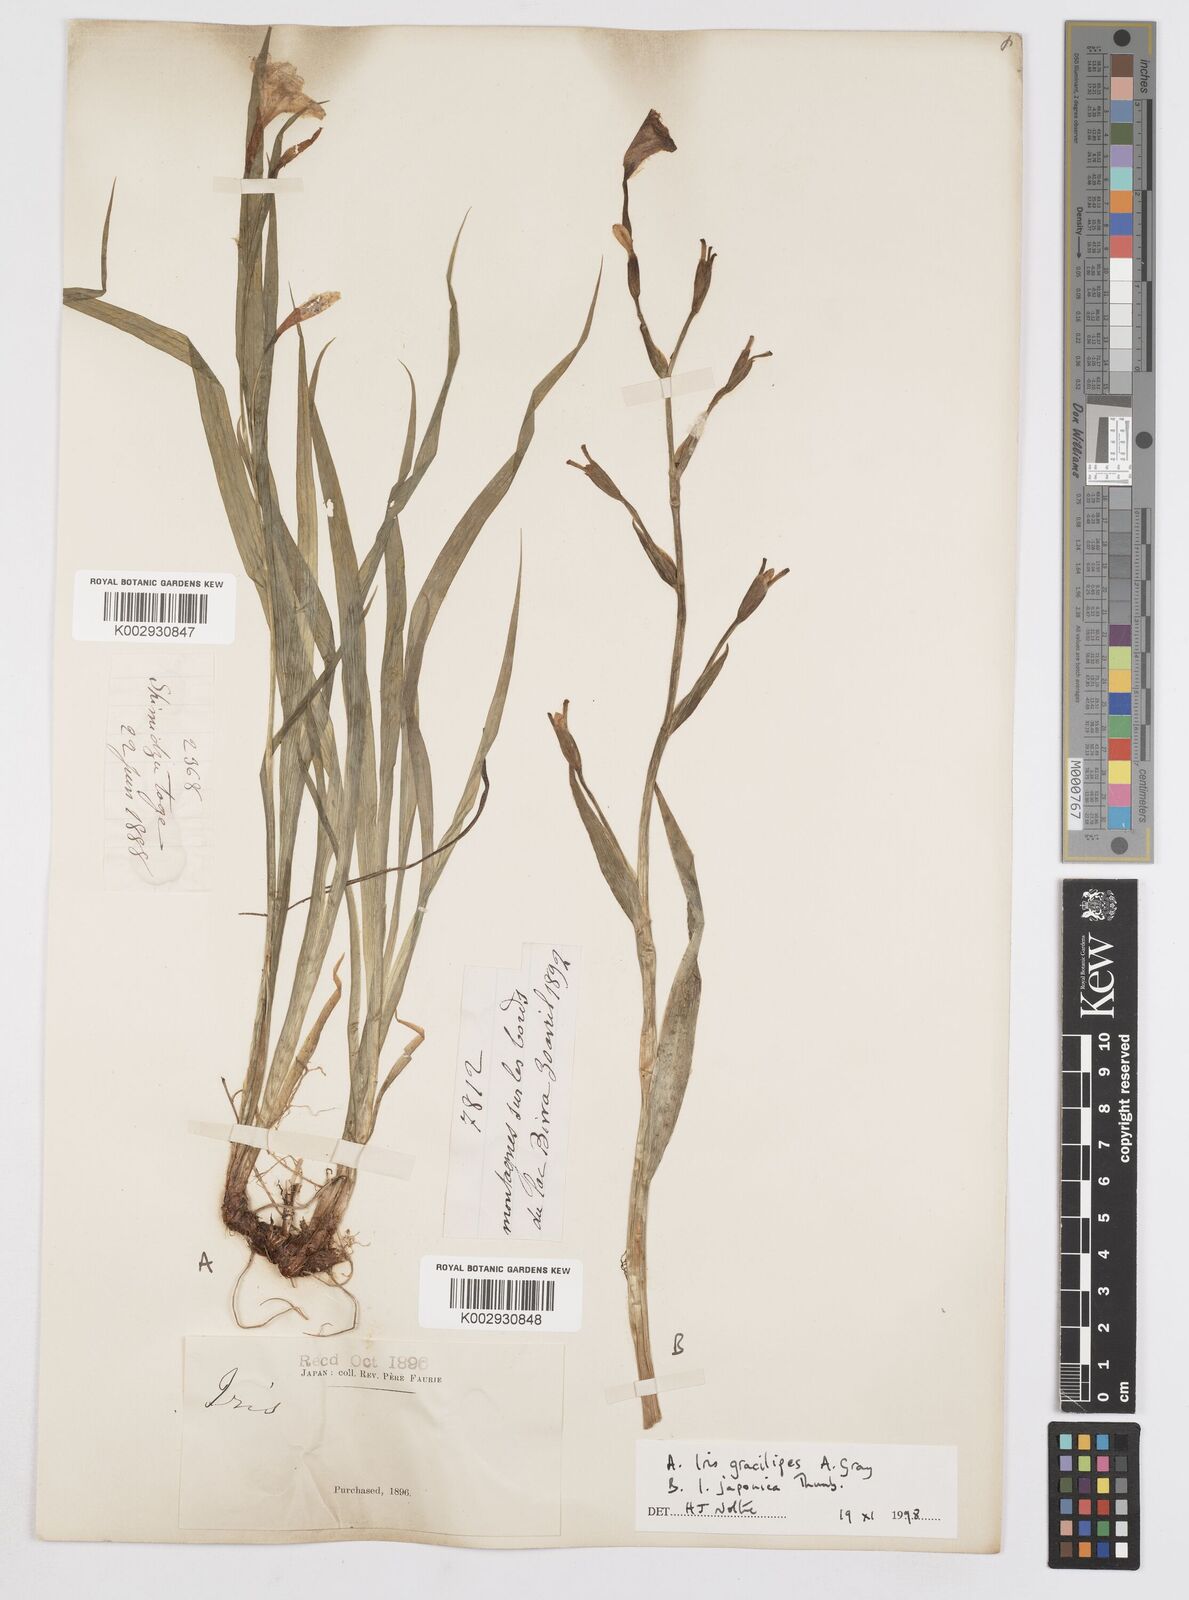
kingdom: Plantae
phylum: Tracheophyta
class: Liliopsida
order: Asparagales
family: Iridaceae
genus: Iris
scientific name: Iris gracilipes
